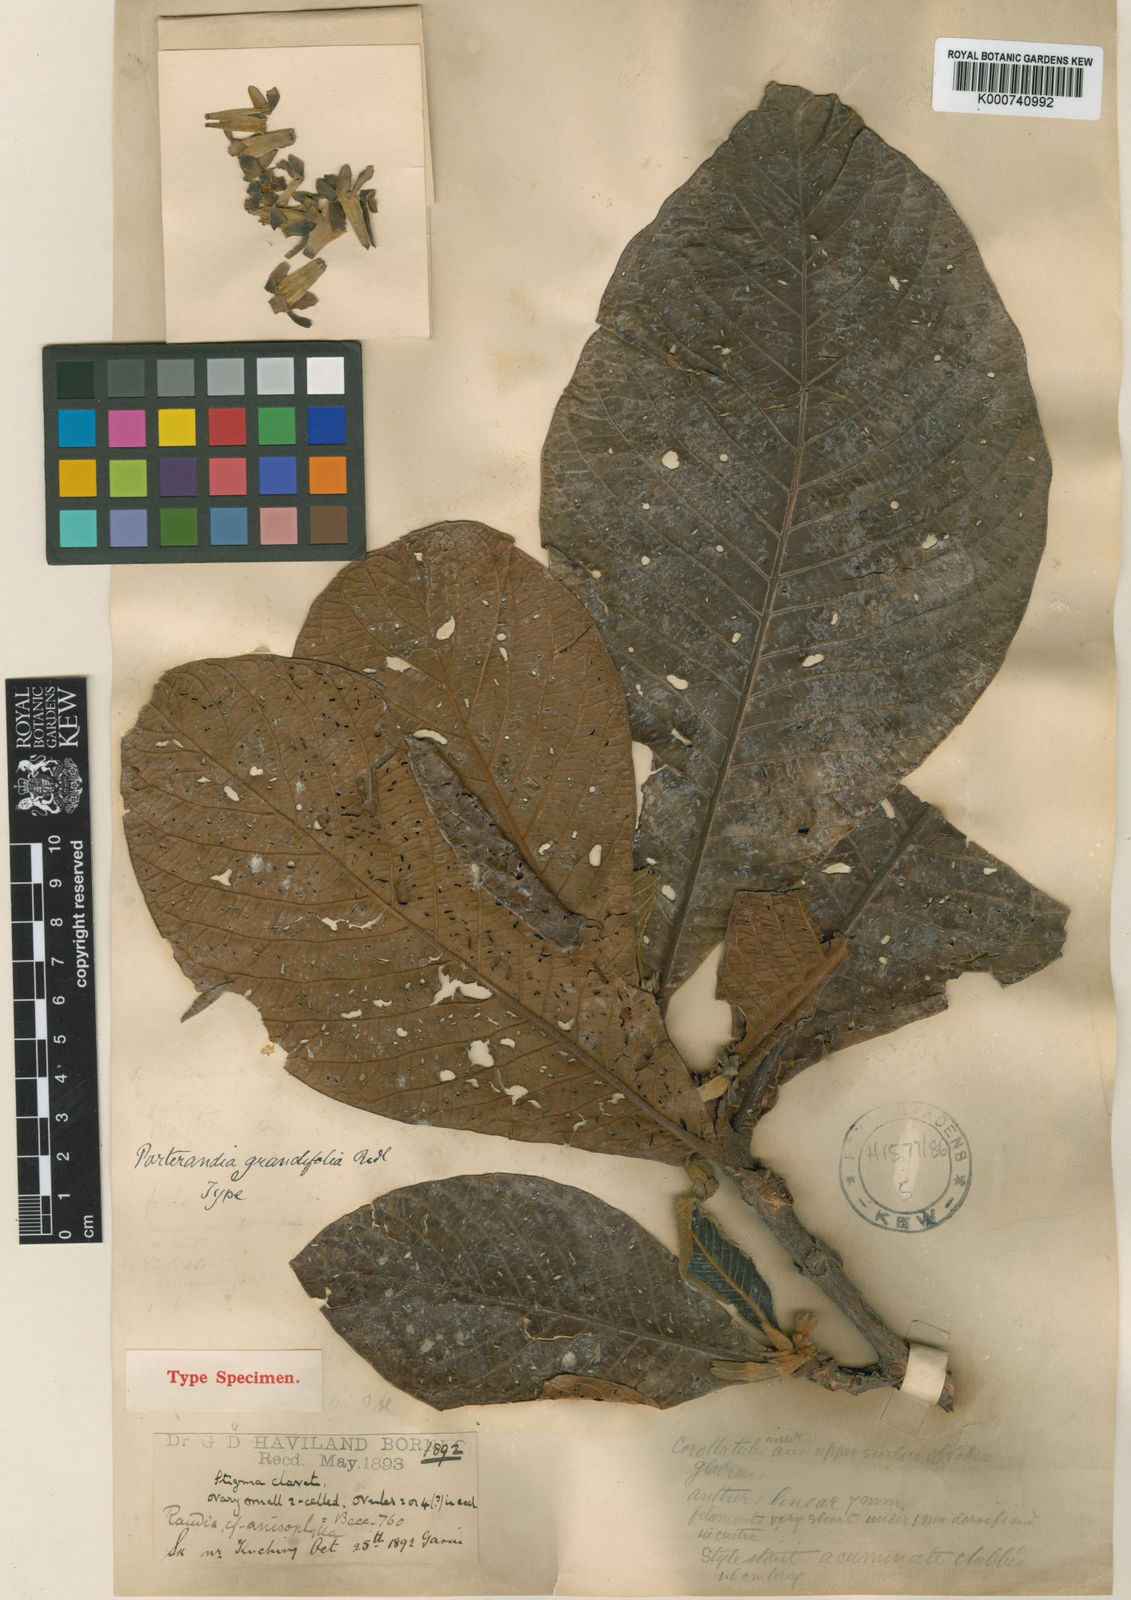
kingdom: Plantae
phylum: Tracheophyta
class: Magnoliopsida
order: Gentianales
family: Rubiaceae
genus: Porterandia
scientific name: Porterandia grandifolia
